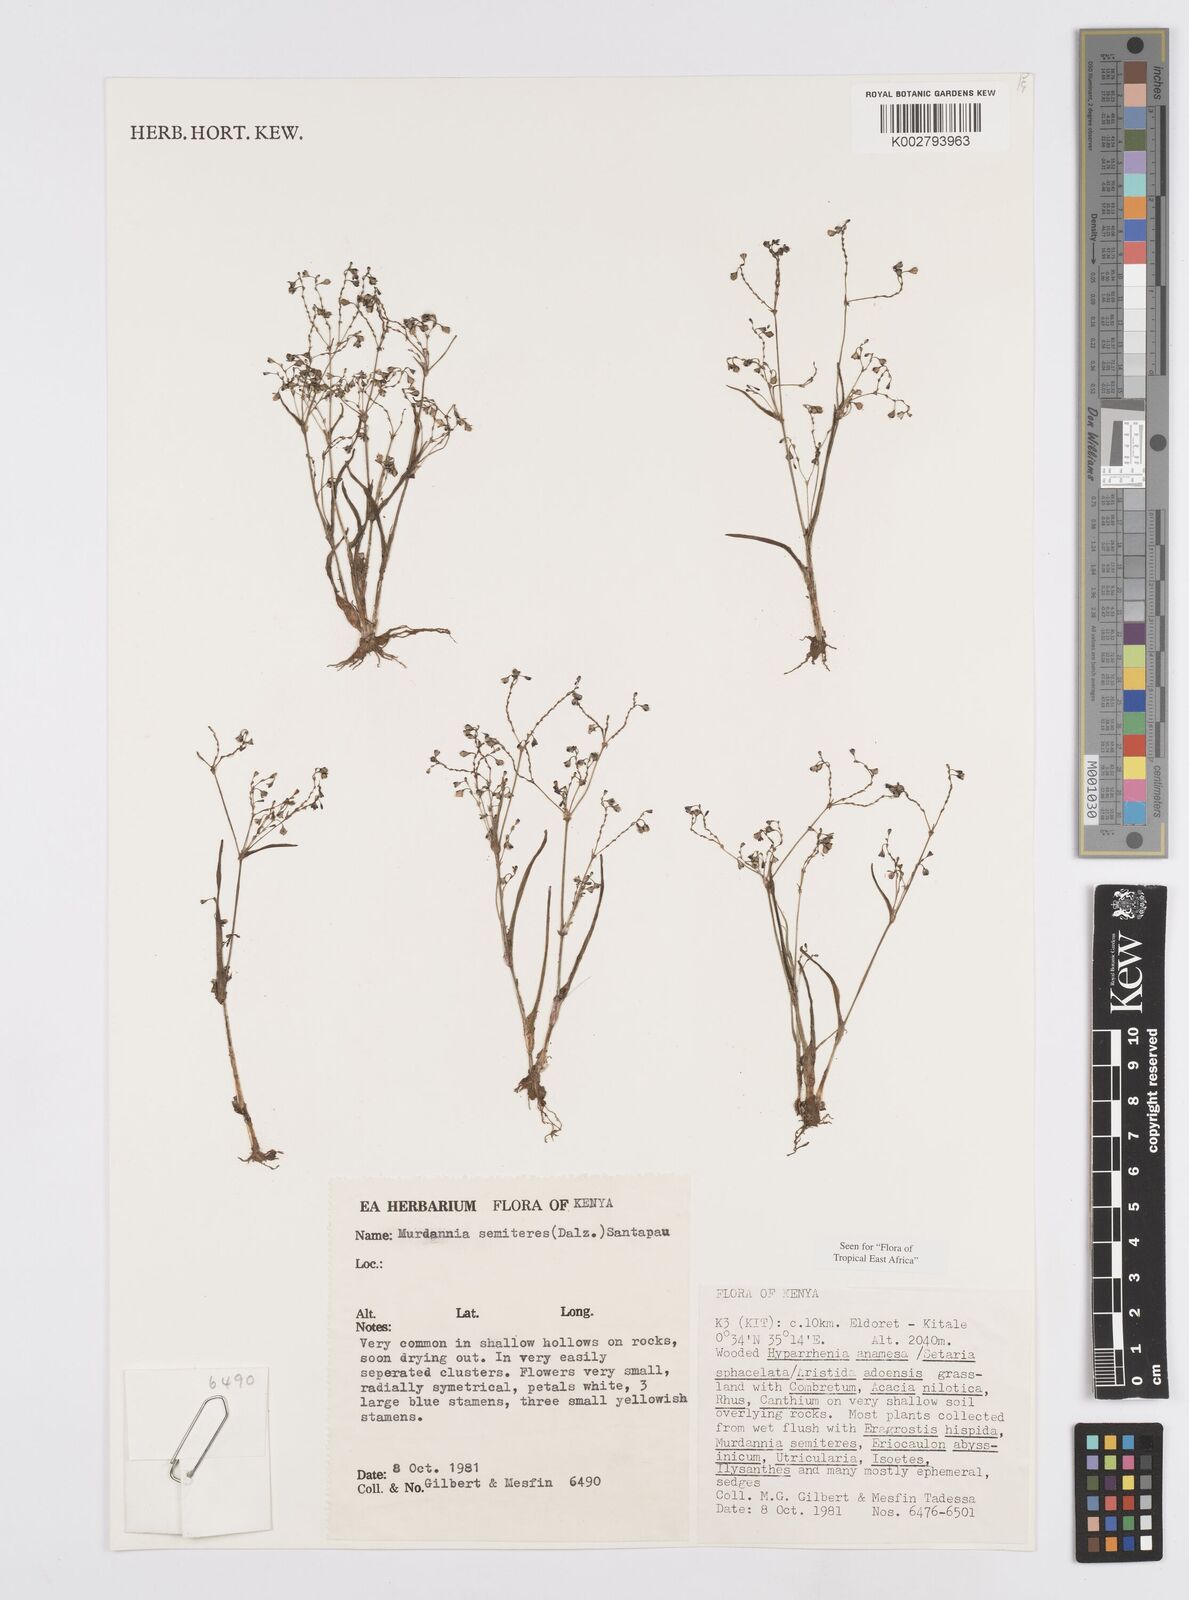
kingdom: Plantae
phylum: Tracheophyta
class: Liliopsida
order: Commelinales
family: Commelinaceae
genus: Murdannia
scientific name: Murdannia semiteres
